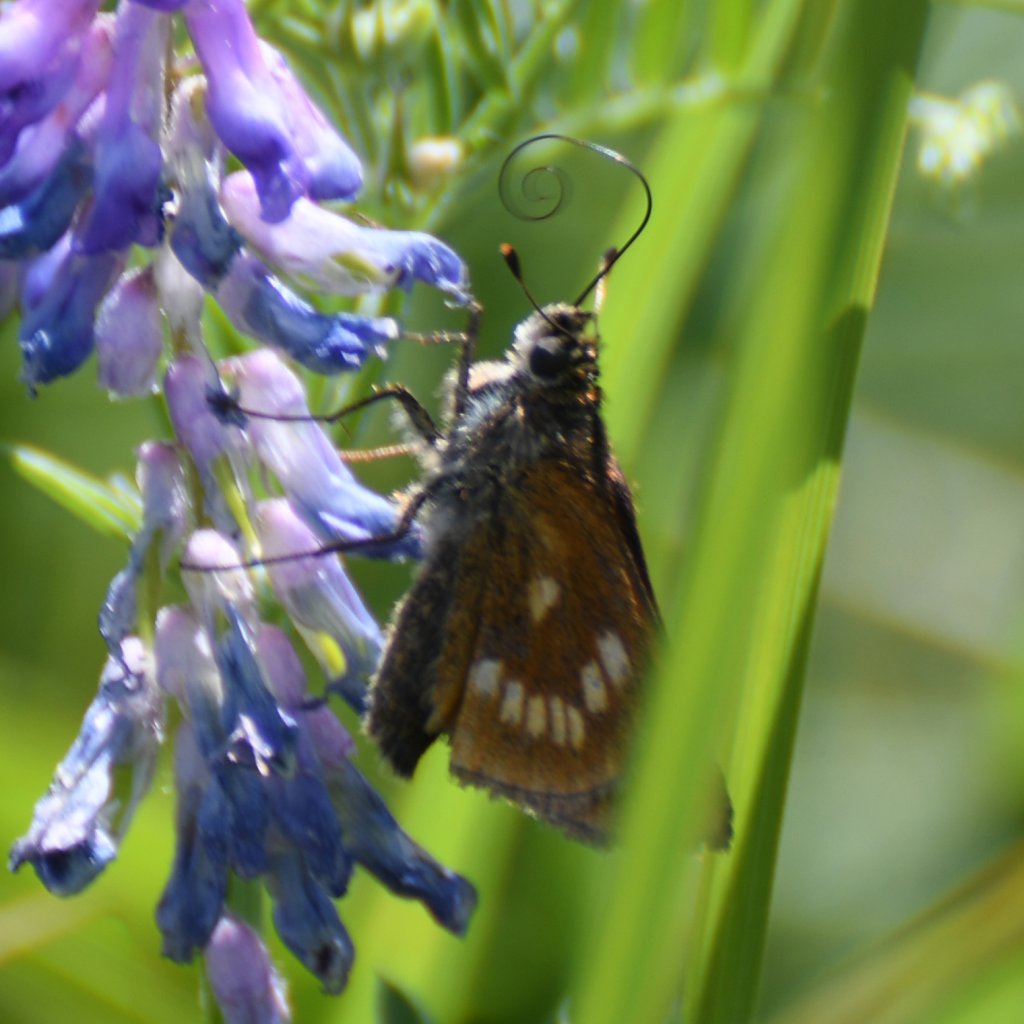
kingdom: Animalia
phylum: Arthropoda
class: Insecta
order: Lepidoptera
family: Hesperiidae
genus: Polites
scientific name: Polites
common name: Long Dash Skipper
